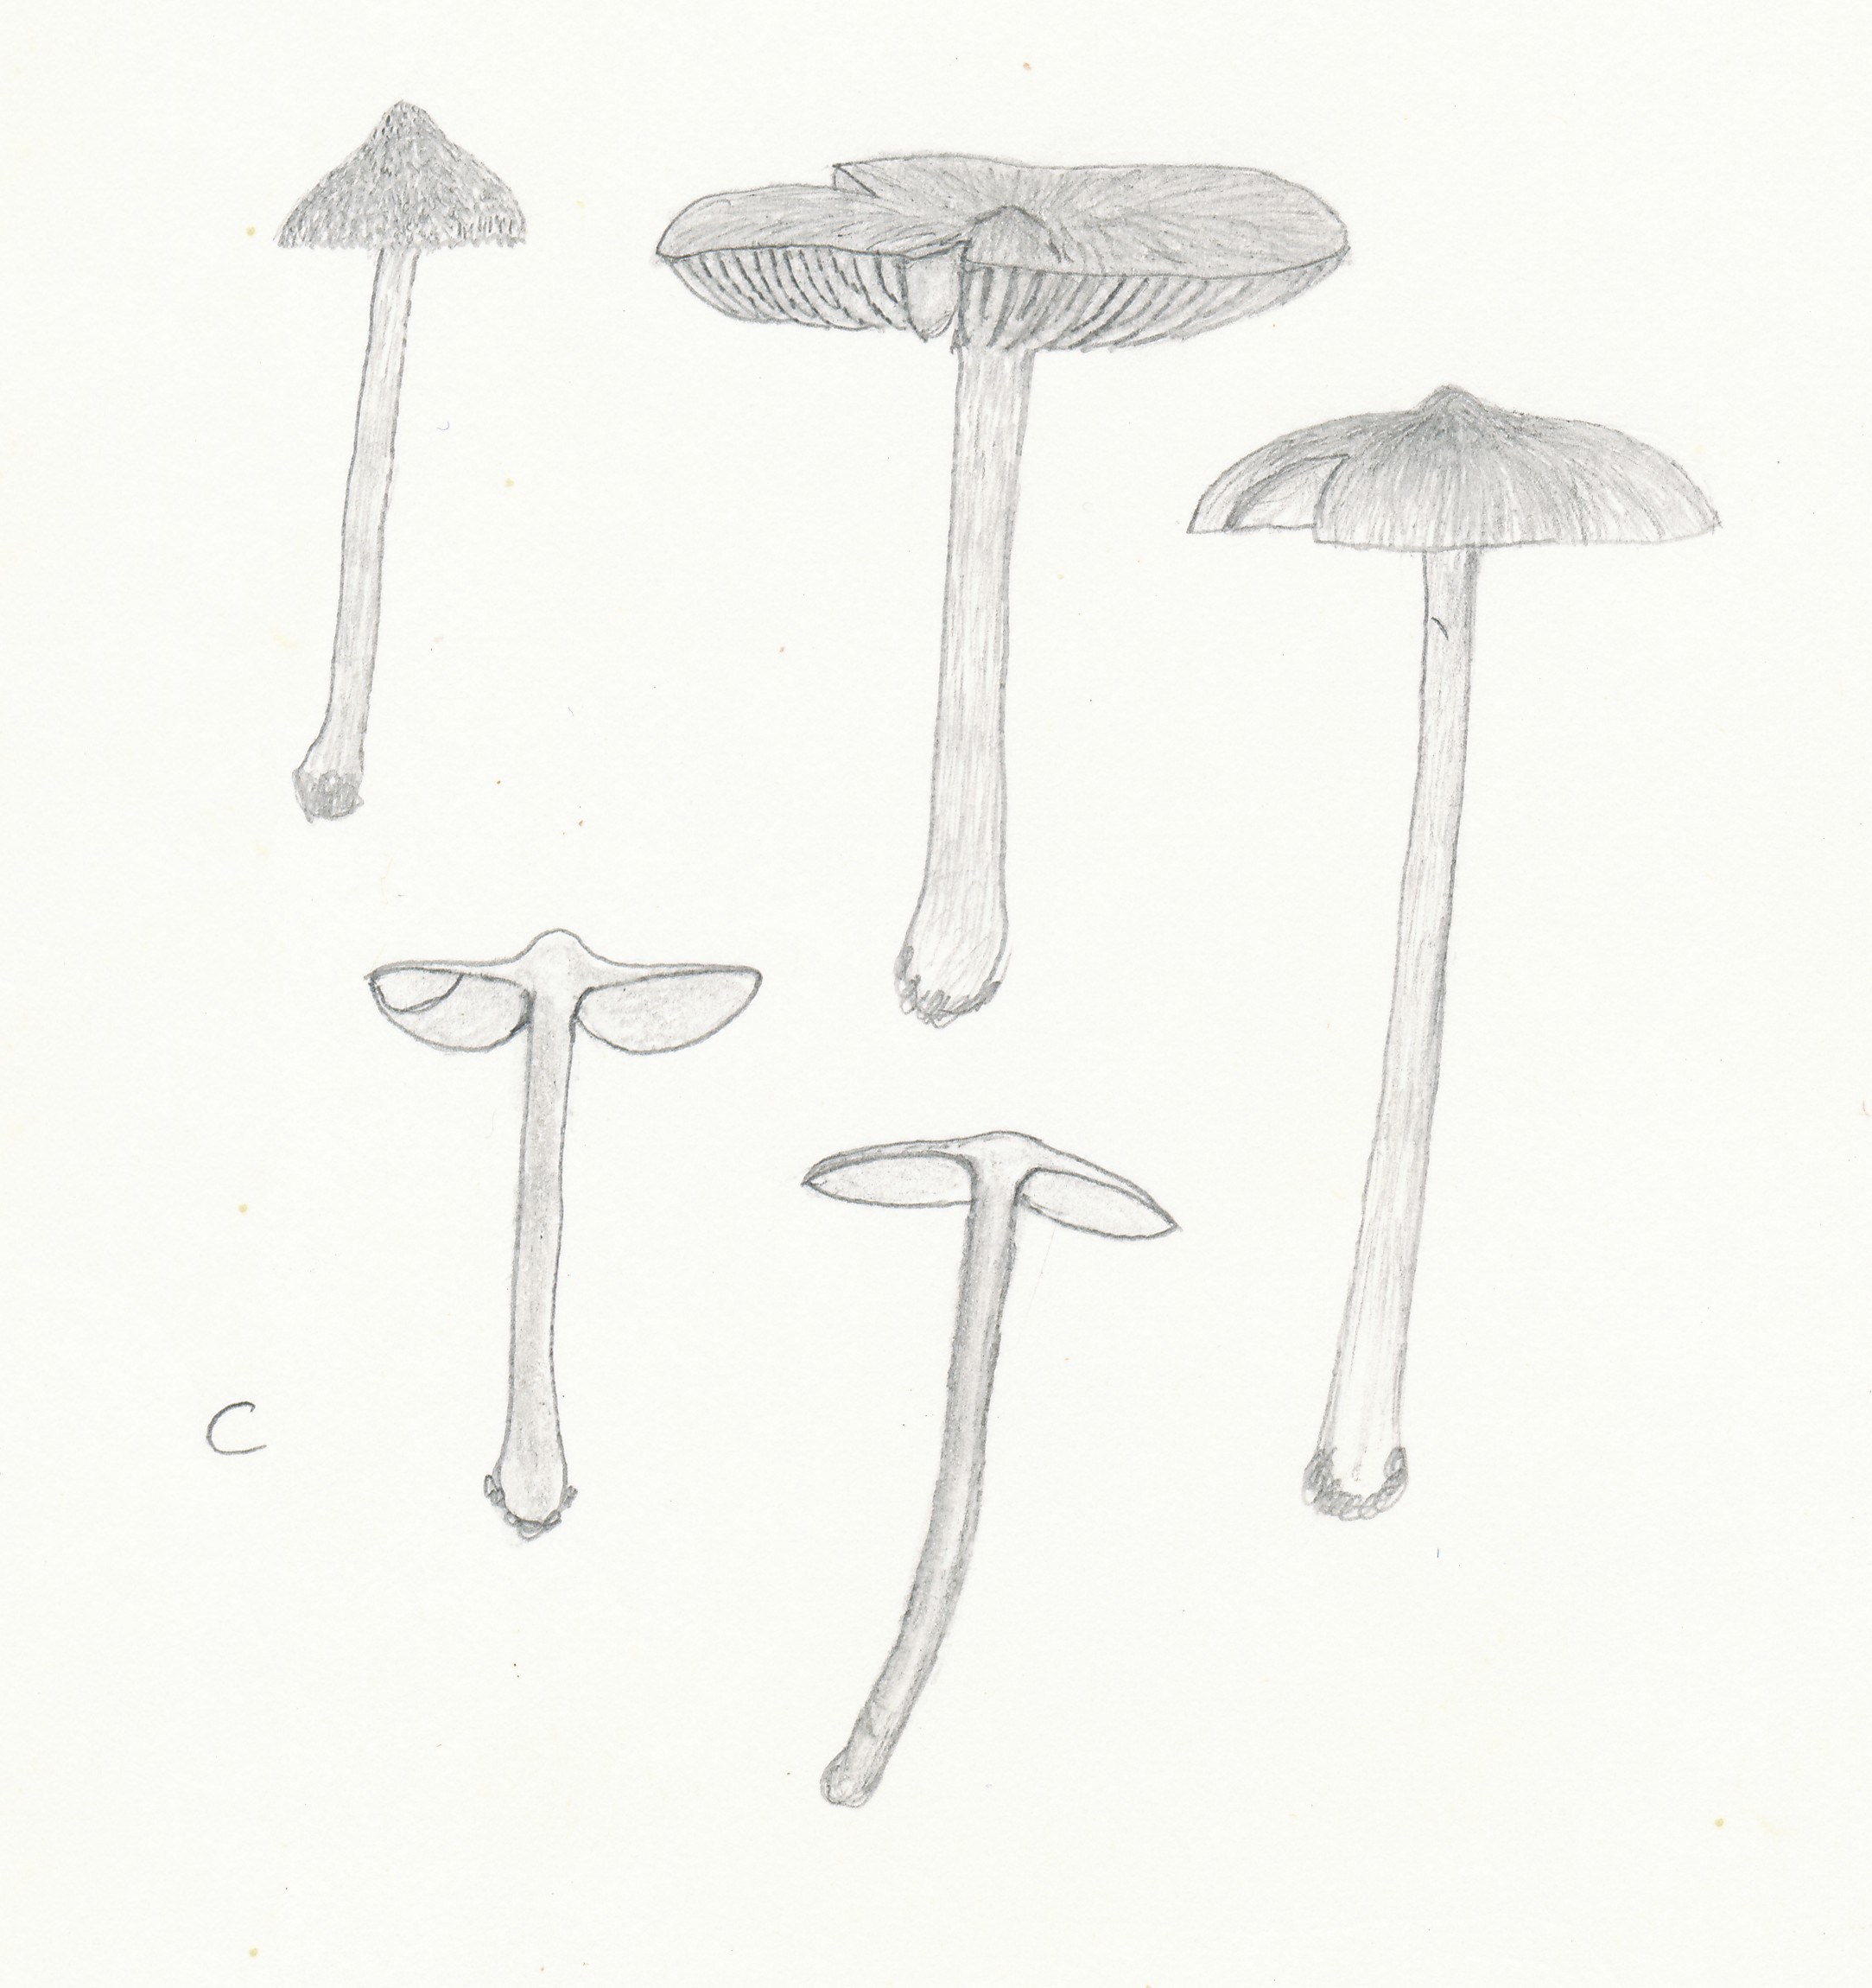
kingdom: Fungi
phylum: Basidiomycota
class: Agaricomycetes
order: Agaricales
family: Inocybaceae
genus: Inocybe
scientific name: Inocybe lacera
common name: laset trævlhat
